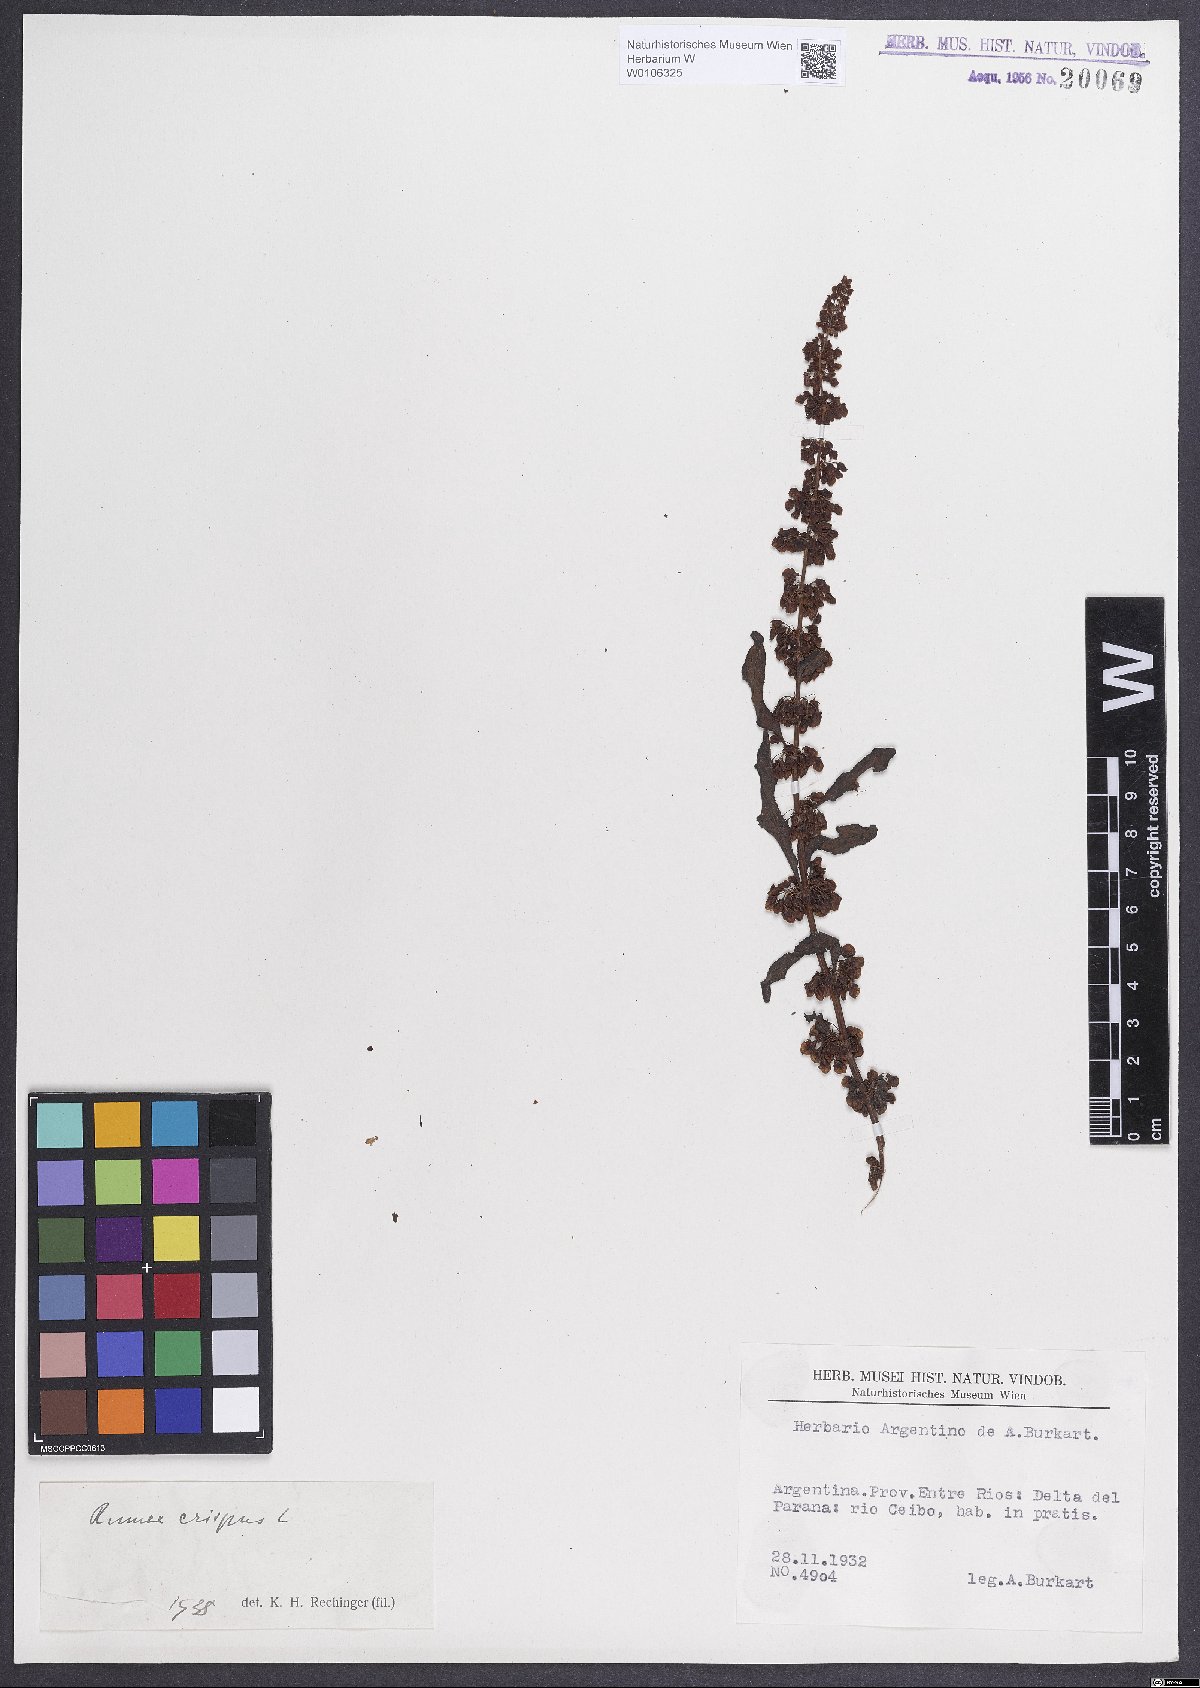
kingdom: Plantae
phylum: Tracheophyta
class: Magnoliopsida
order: Caryophyllales
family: Polygonaceae
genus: Rumex
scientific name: Rumex crispus
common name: Curled dock
